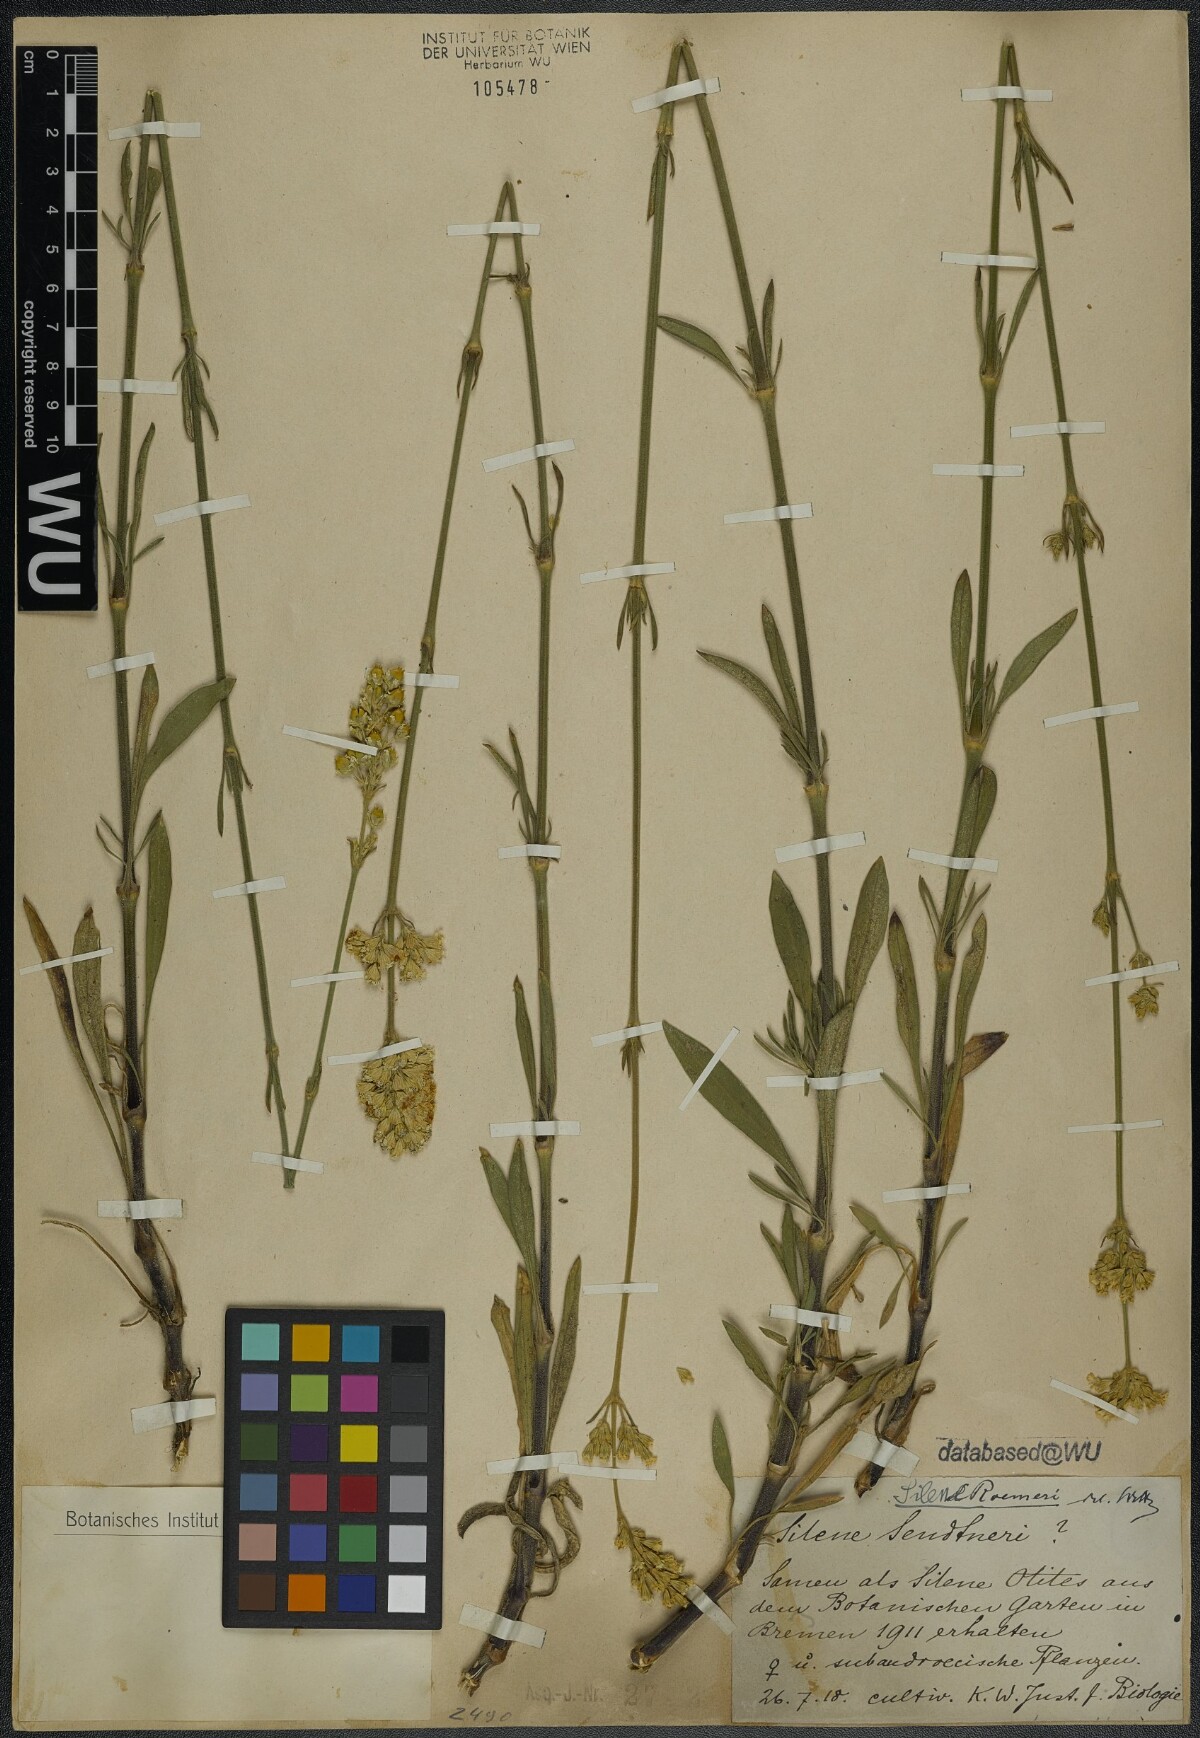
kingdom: Plantae
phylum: Tracheophyta
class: Magnoliopsida
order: Caryophyllales
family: Caryophyllaceae
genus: Silene
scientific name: Silene roemeri
